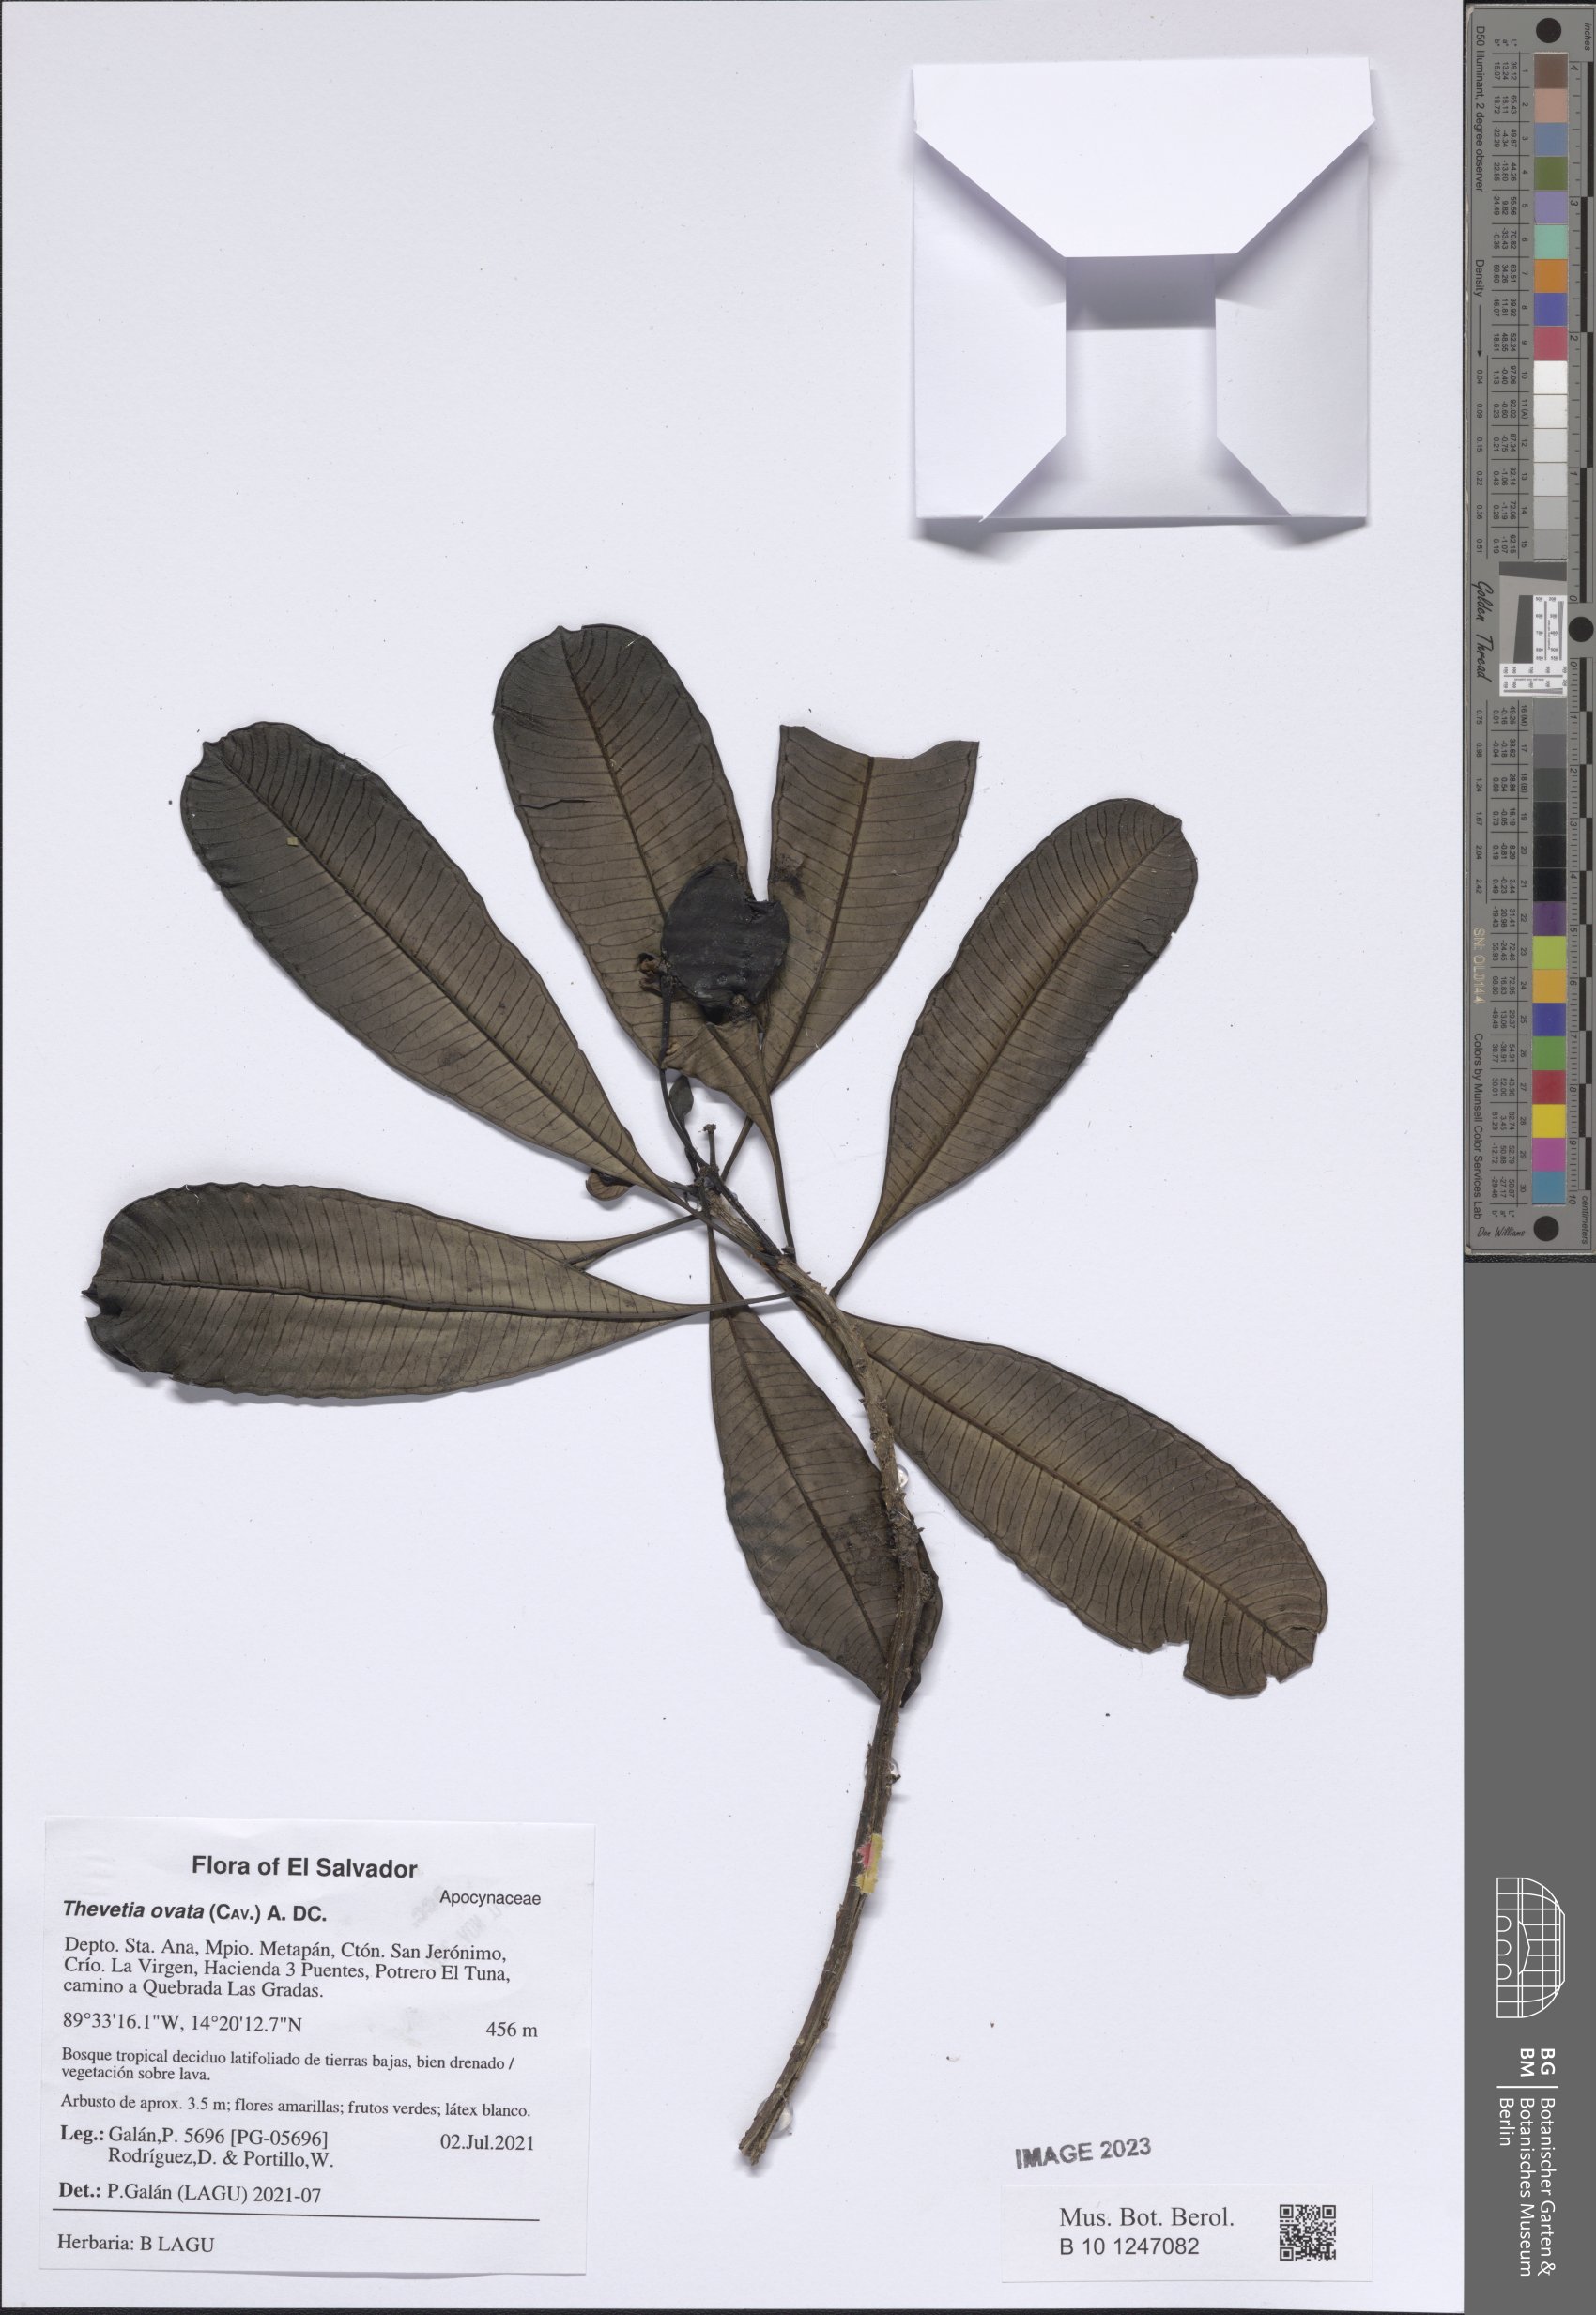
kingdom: Plantae
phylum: Tracheophyta
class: Magnoliopsida
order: Gentianales
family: Apocynaceae
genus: Cascabela
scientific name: Cascabela ovata
